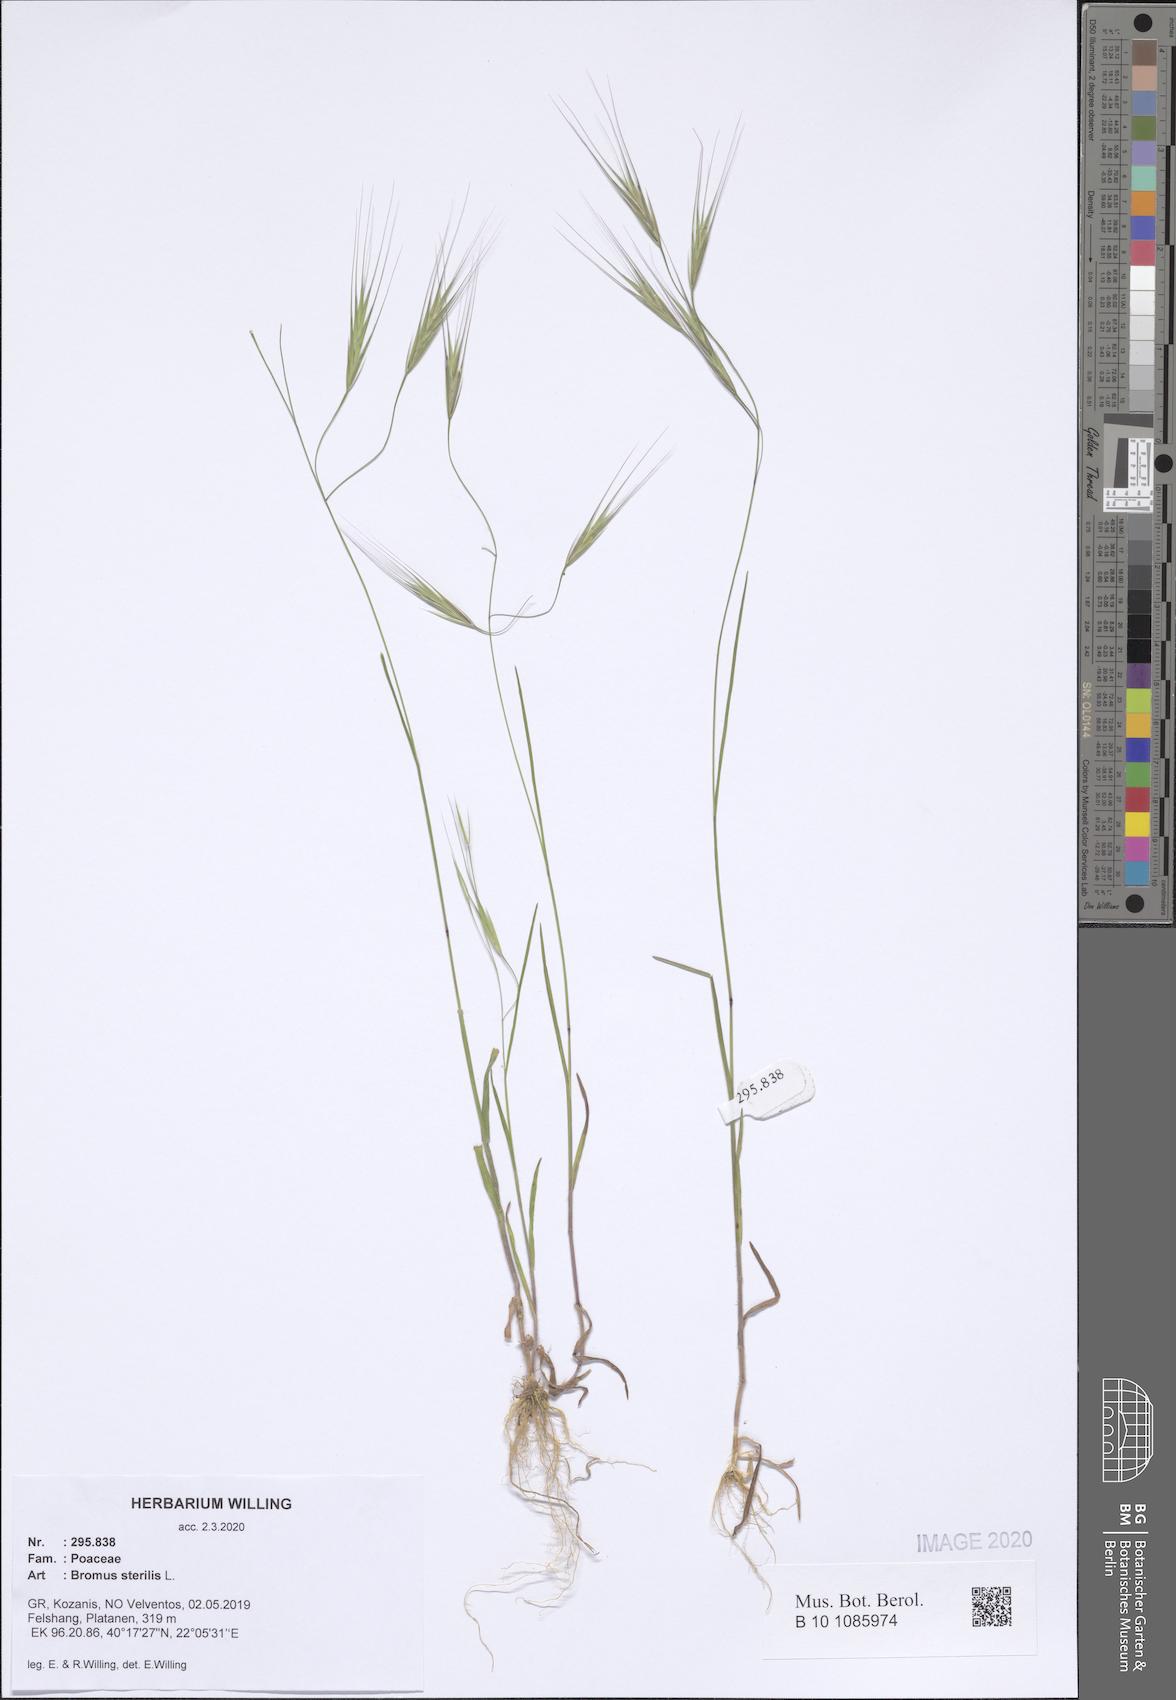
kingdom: Plantae
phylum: Tracheophyta
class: Liliopsida
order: Poales
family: Poaceae
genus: Bromus
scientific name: Bromus sterilis
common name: Poverty brome
